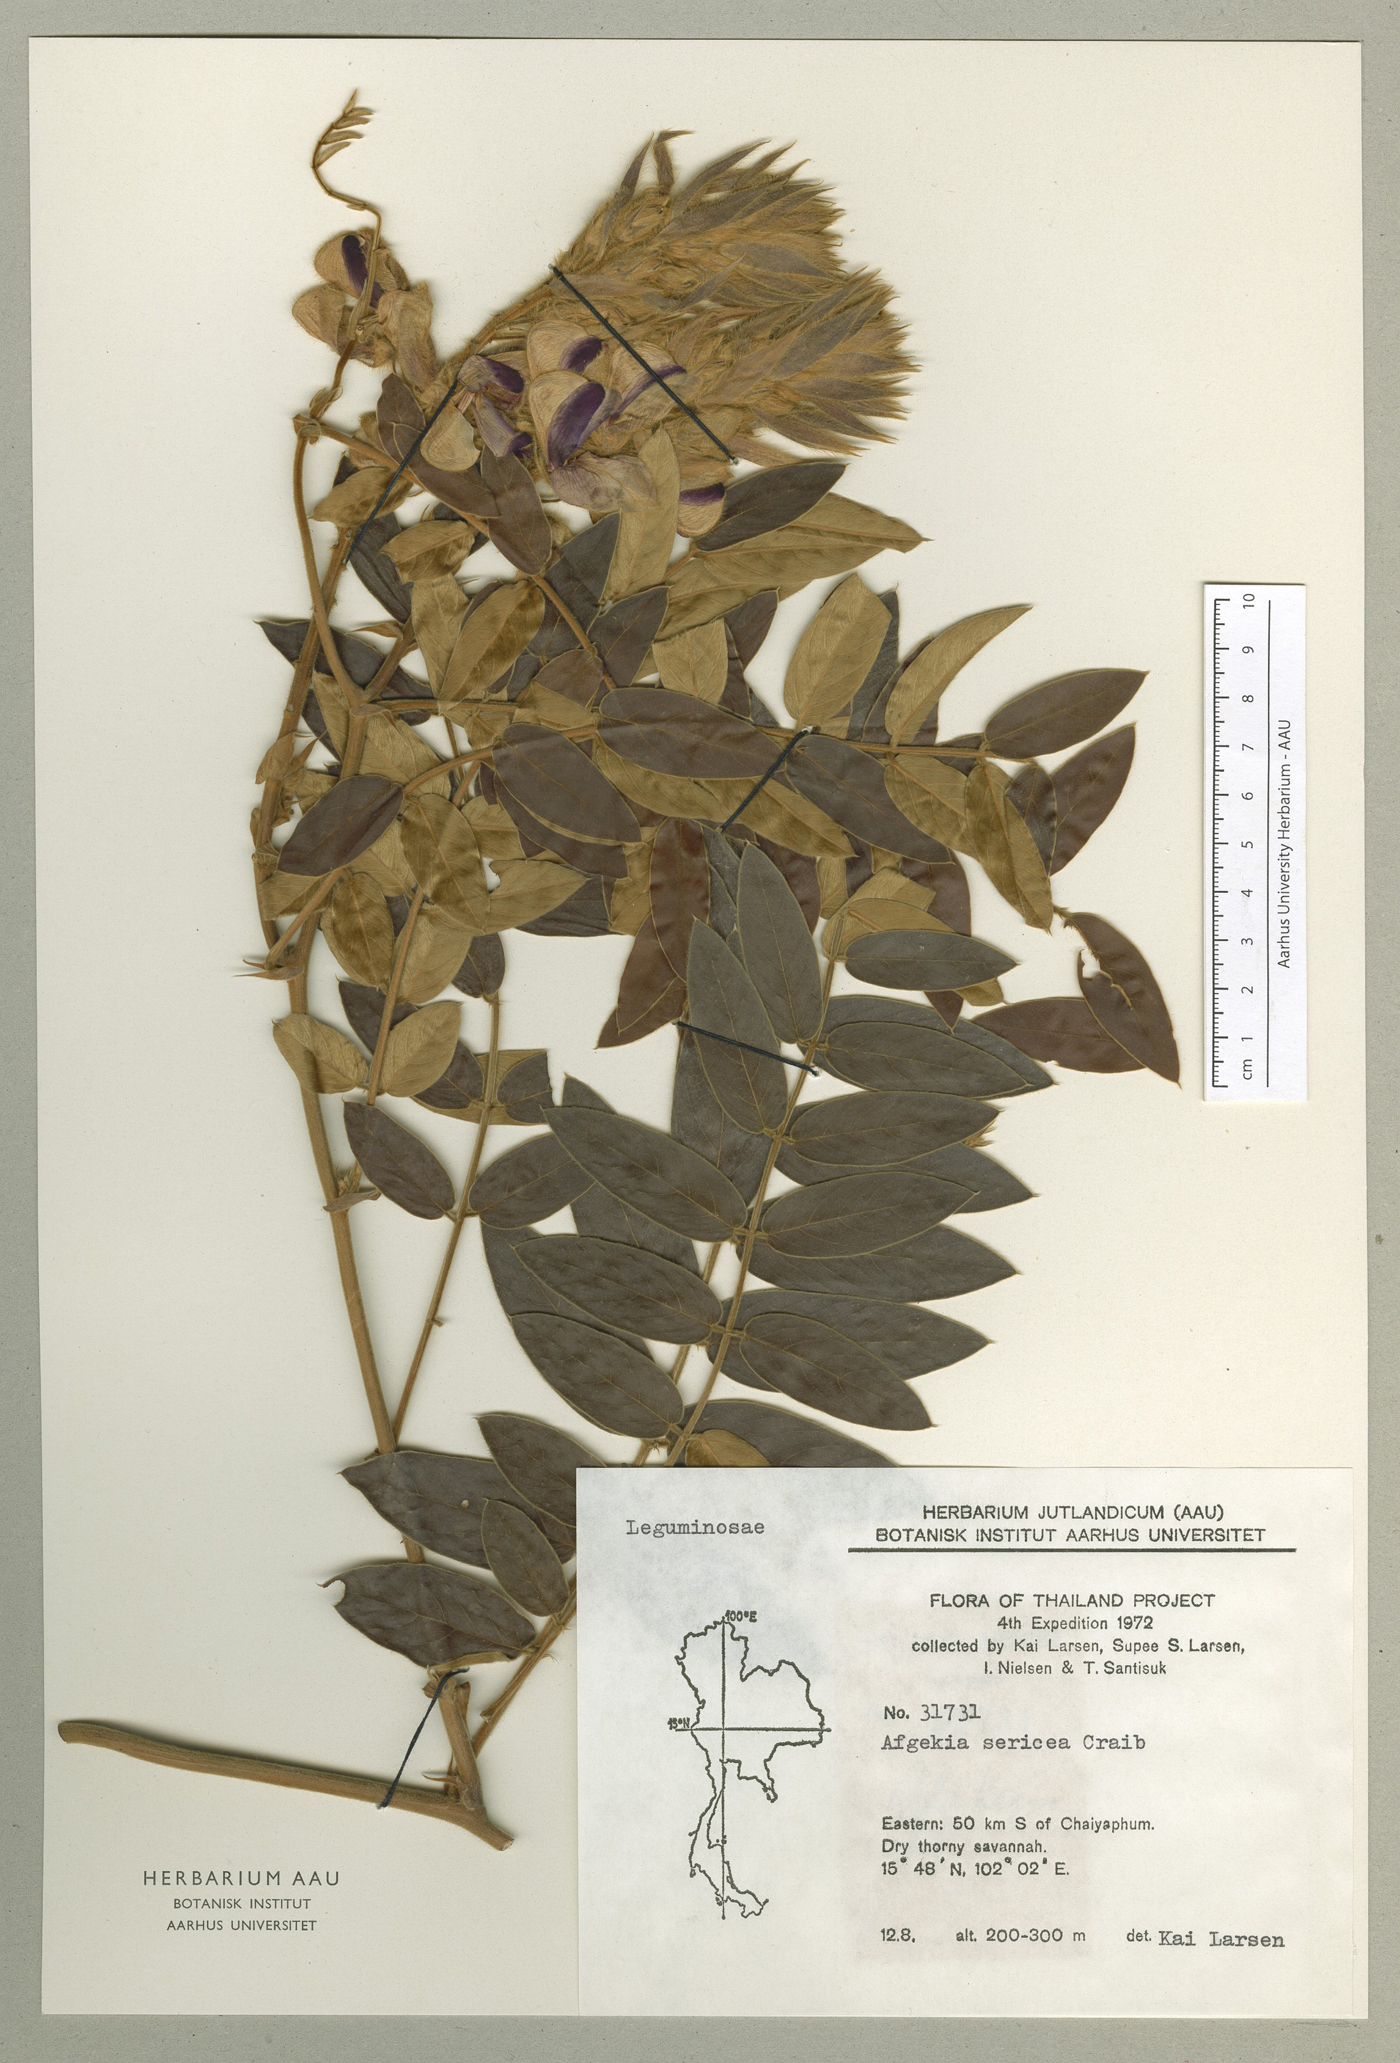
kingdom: Plantae
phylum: Tracheophyta
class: Magnoliopsida
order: Fabales
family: Fabaceae
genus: Afgekia
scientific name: Afgekia sericea
